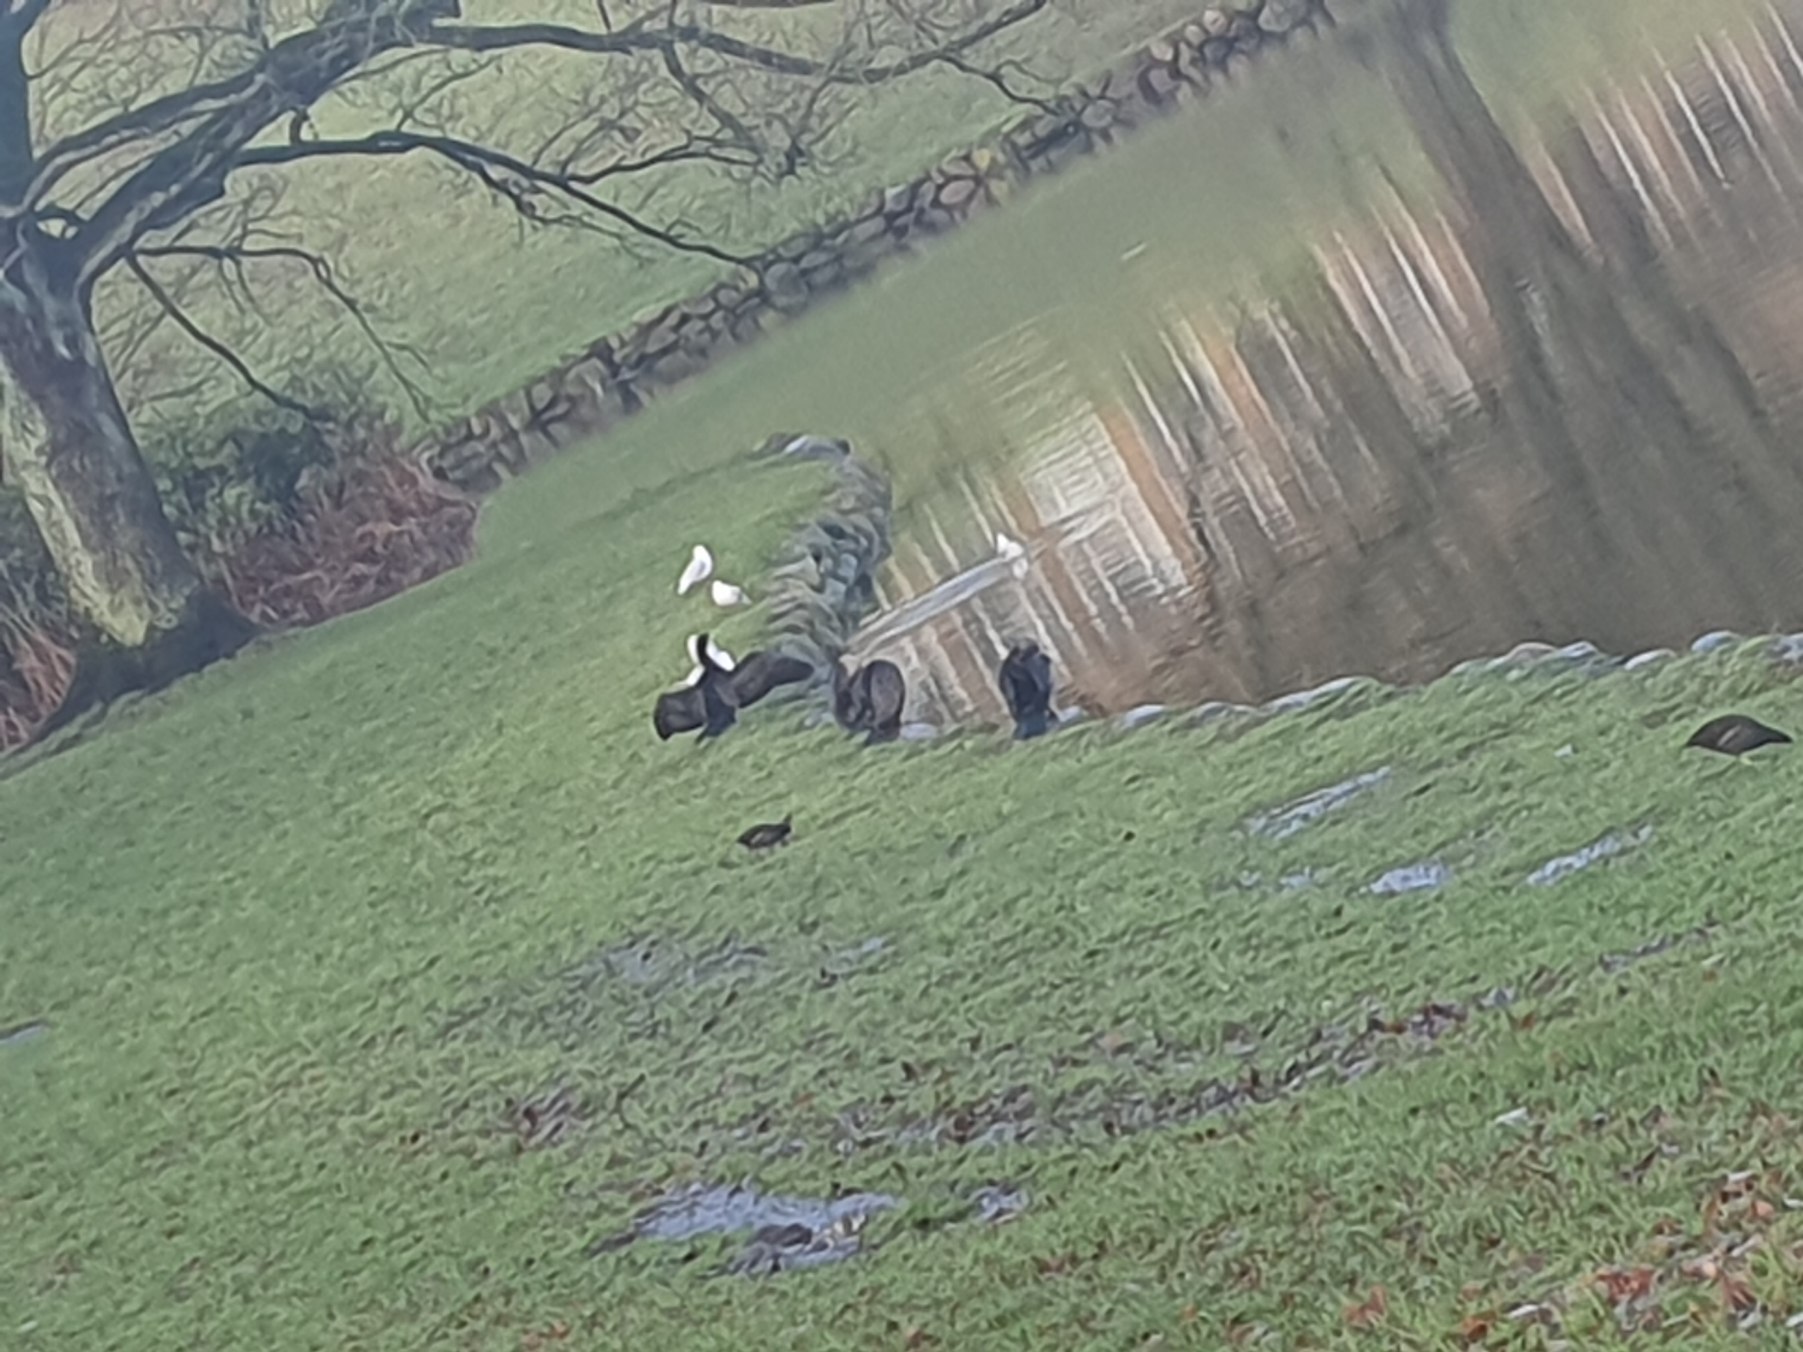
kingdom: Animalia
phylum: Chordata
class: Aves
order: Suliformes
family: Phalacrocoracidae
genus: Phalacrocorax
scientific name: Phalacrocorax carbo
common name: Skarv
